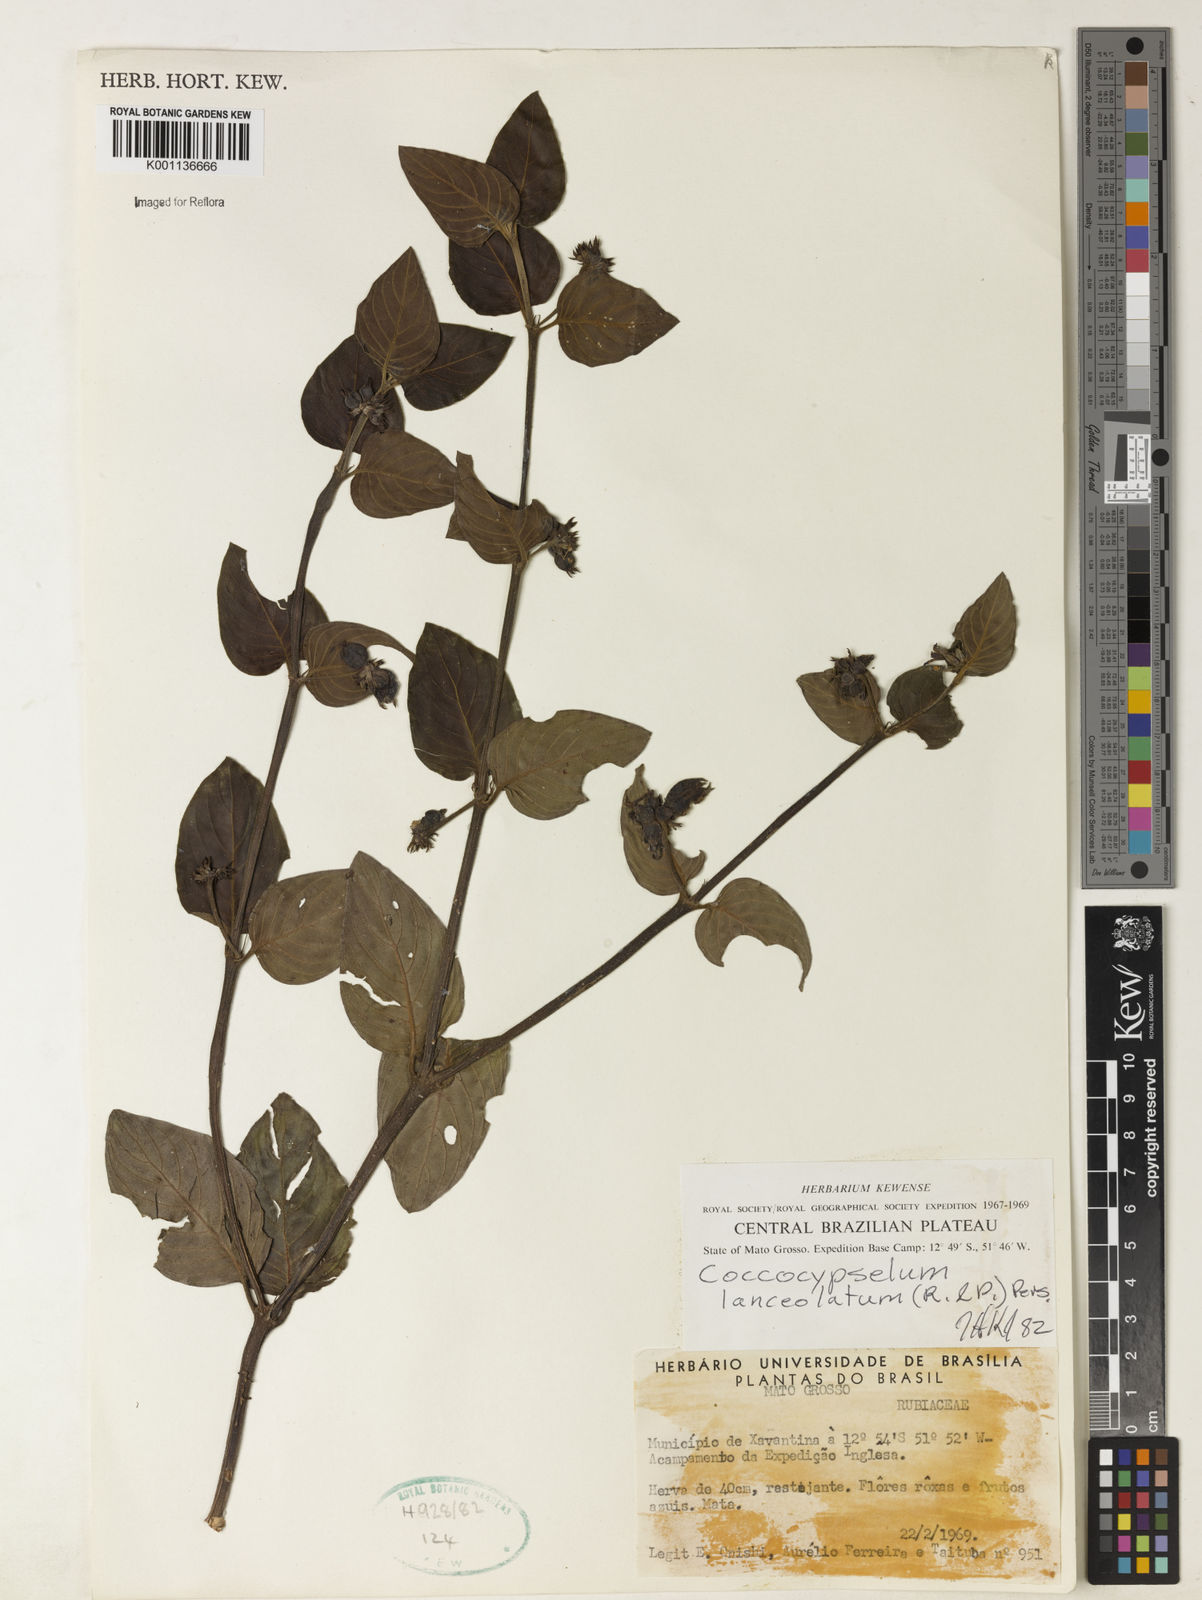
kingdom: Plantae
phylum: Tracheophyta
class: Magnoliopsida
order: Gentianales
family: Rubiaceae
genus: Coccocypselum
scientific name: Coccocypselum lanceolatum
